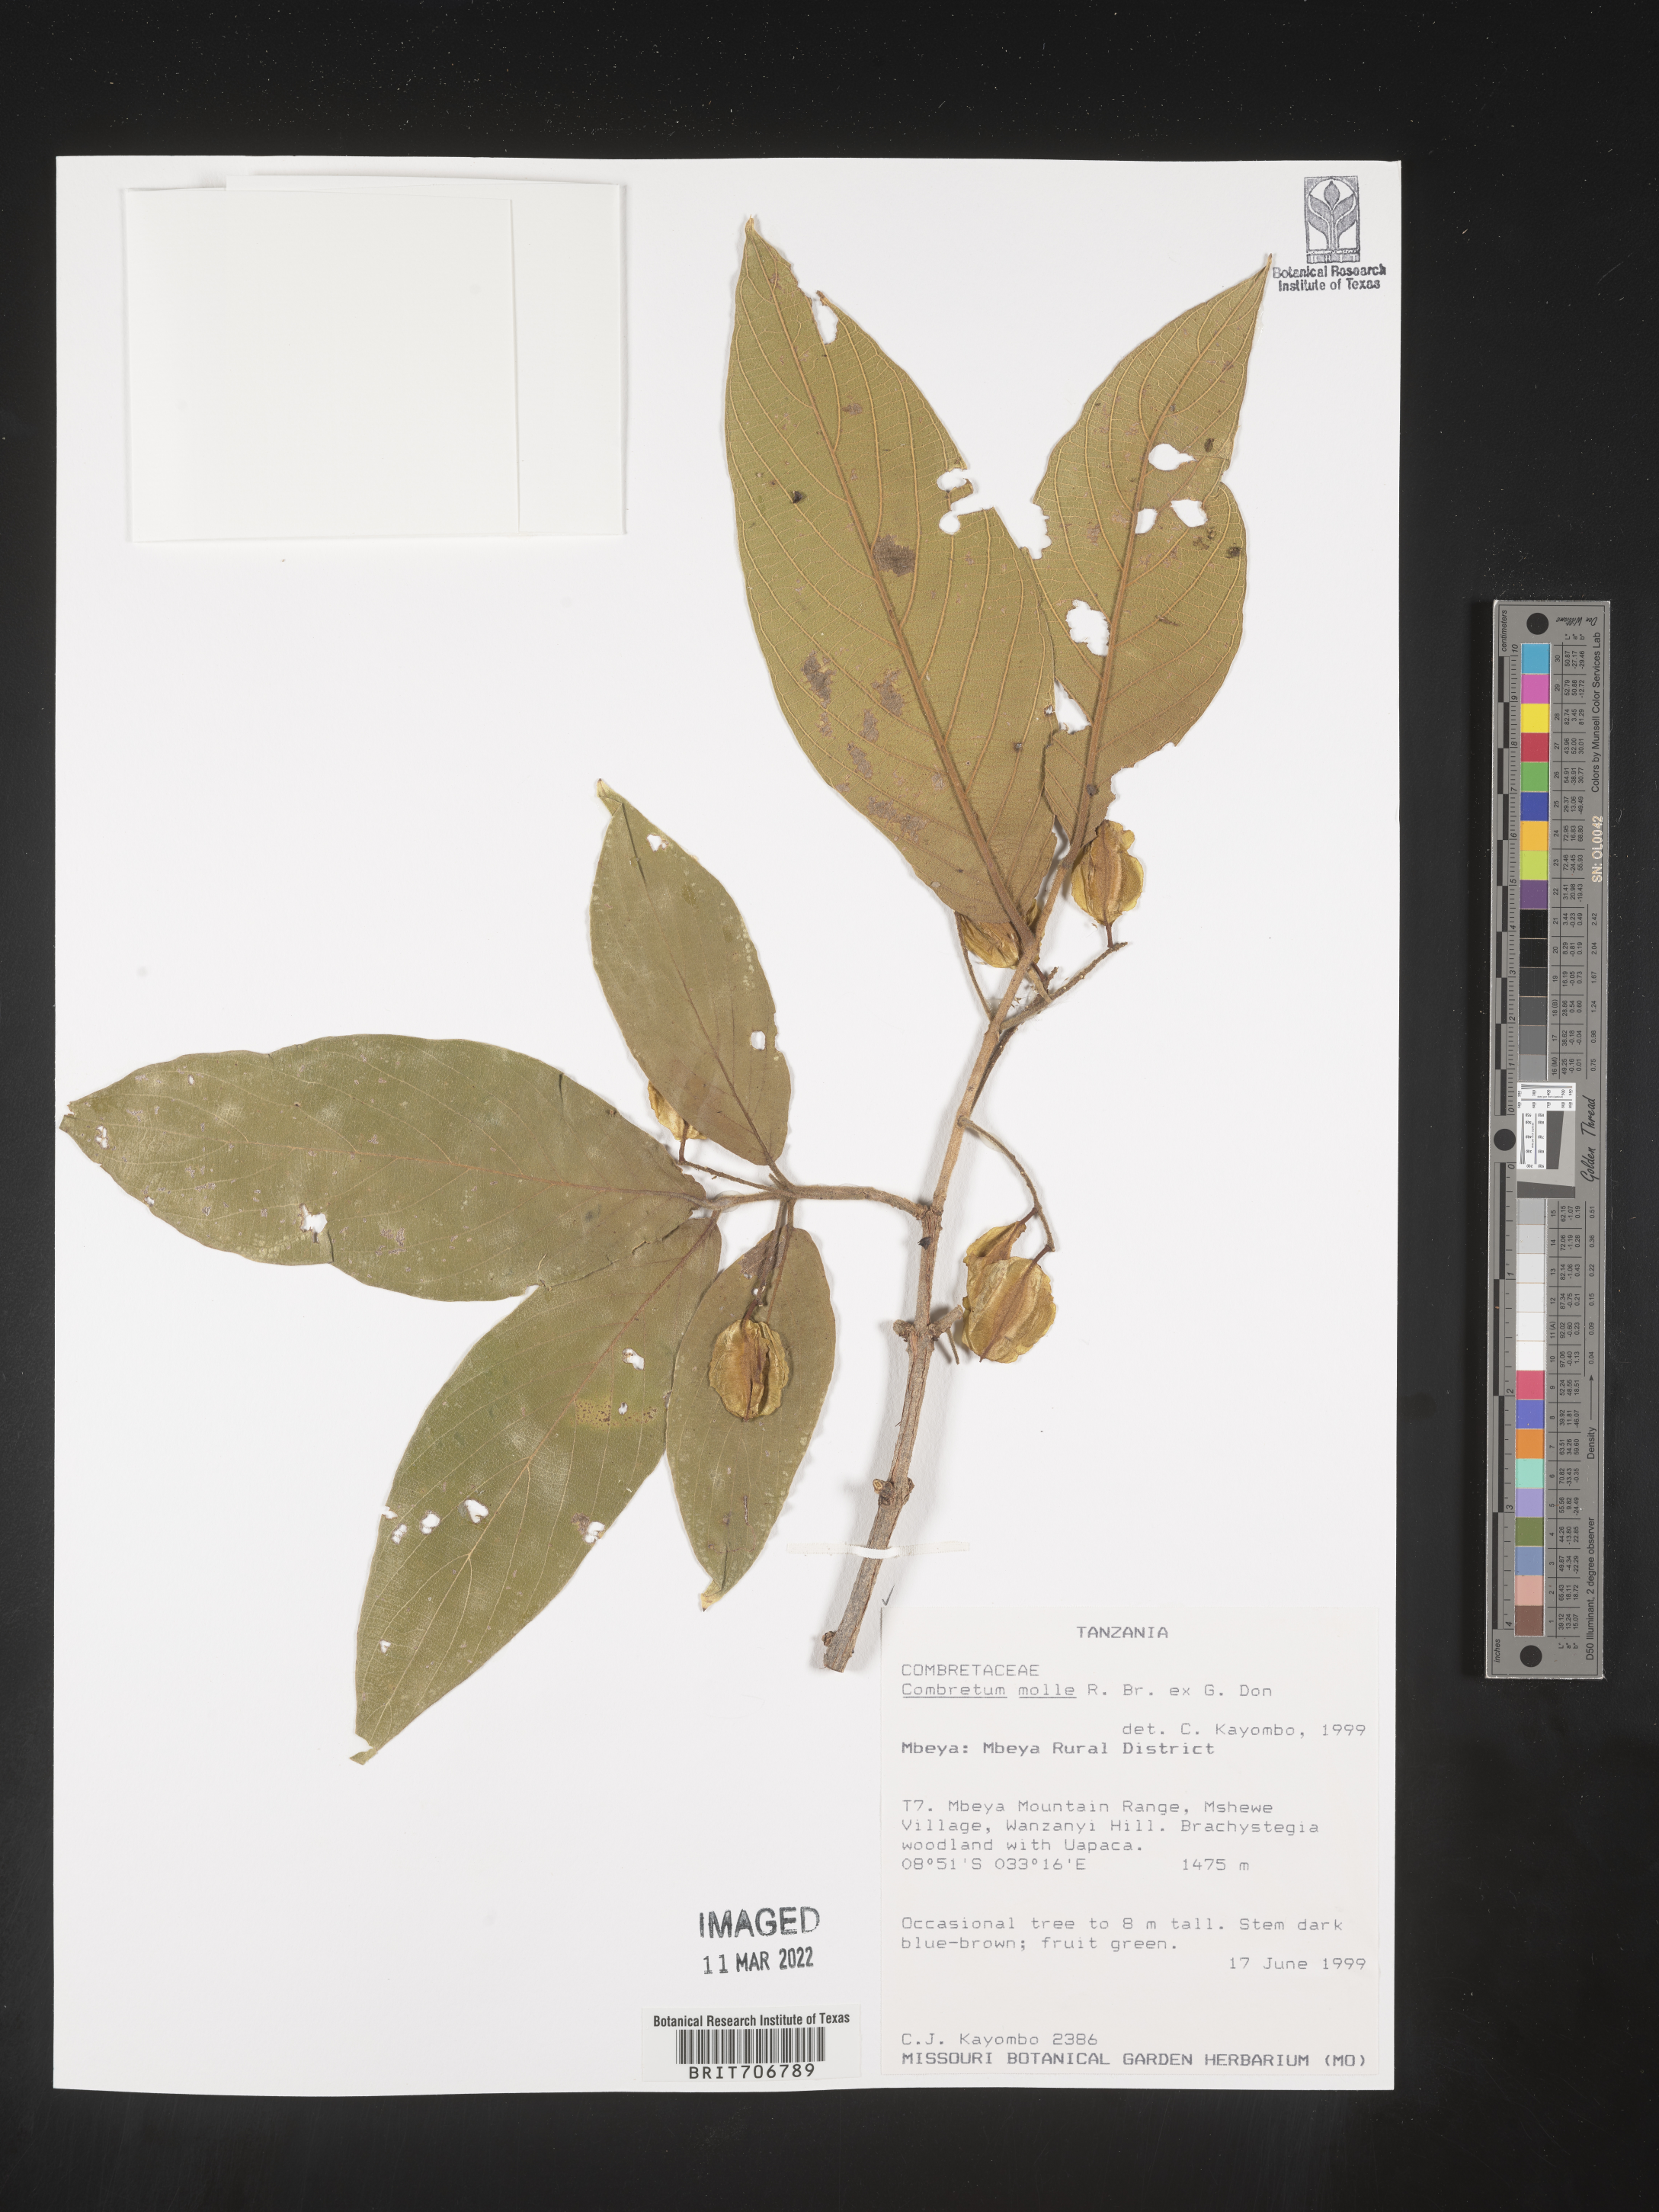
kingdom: Plantae
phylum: Tracheophyta
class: Magnoliopsida
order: Myrtales
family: Combretaceae
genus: Combretum
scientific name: Combretum
